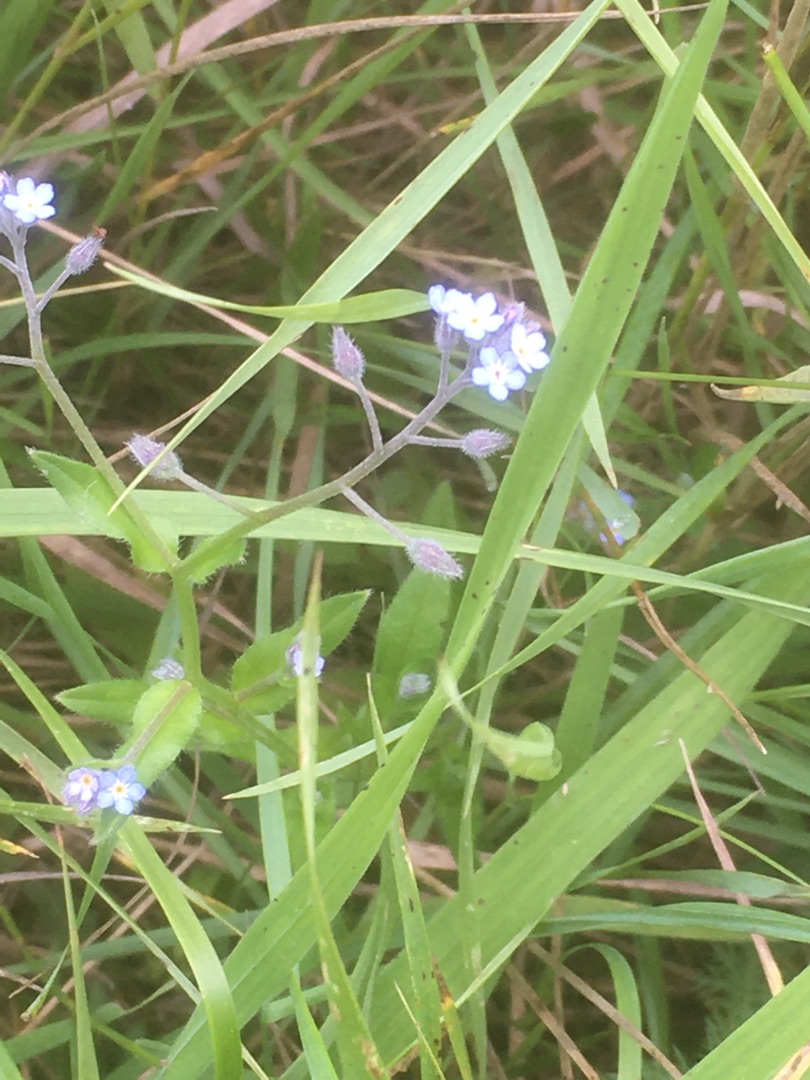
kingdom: Plantae
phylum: Tracheophyta
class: Magnoliopsida
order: Boraginales
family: Boraginaceae
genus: Myosotis
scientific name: Myosotis arvensis
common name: Mark-forglemmigej
